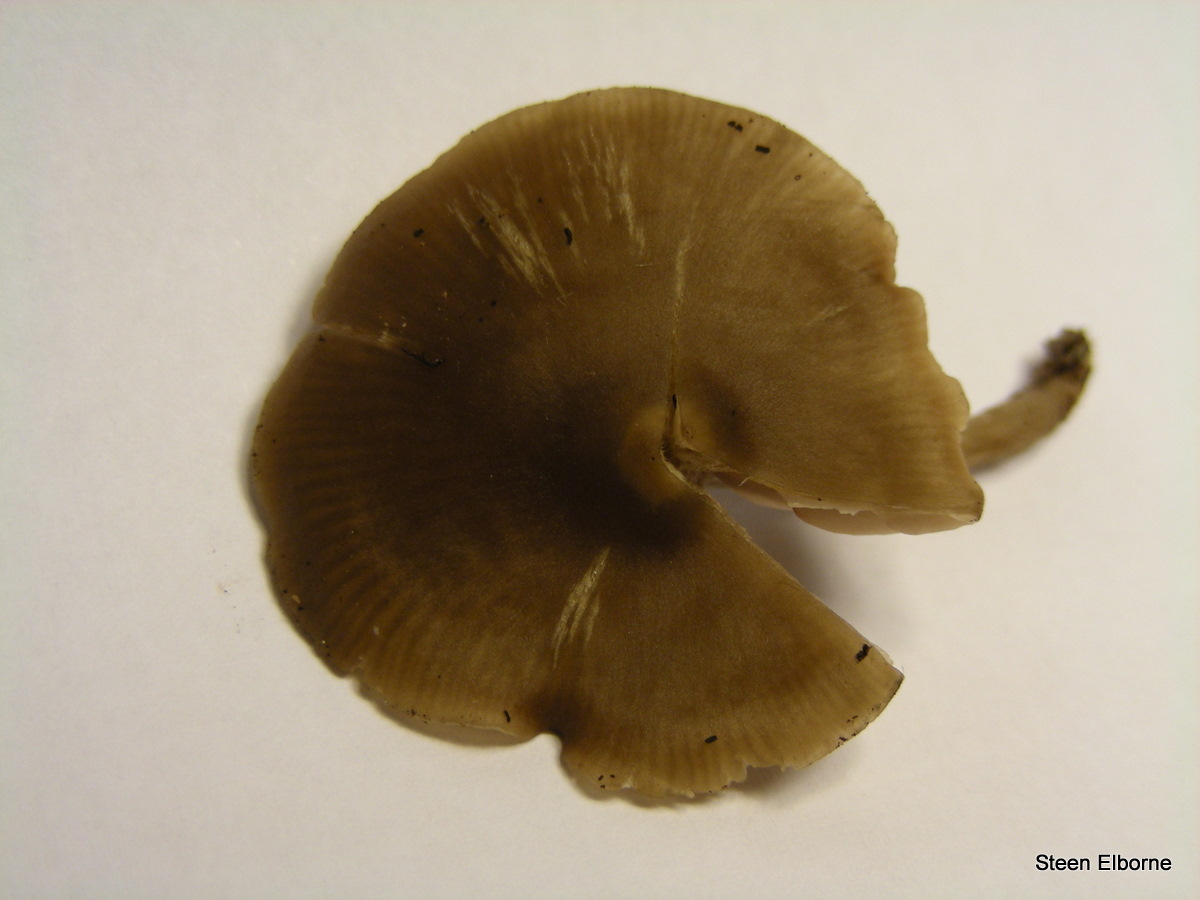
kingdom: Fungi
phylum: Basidiomycota
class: Agaricomycetes
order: Agaricales
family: Entolomataceae
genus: Entoloma
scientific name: Entoloma sericeum
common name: silkeglinsende rødblad
